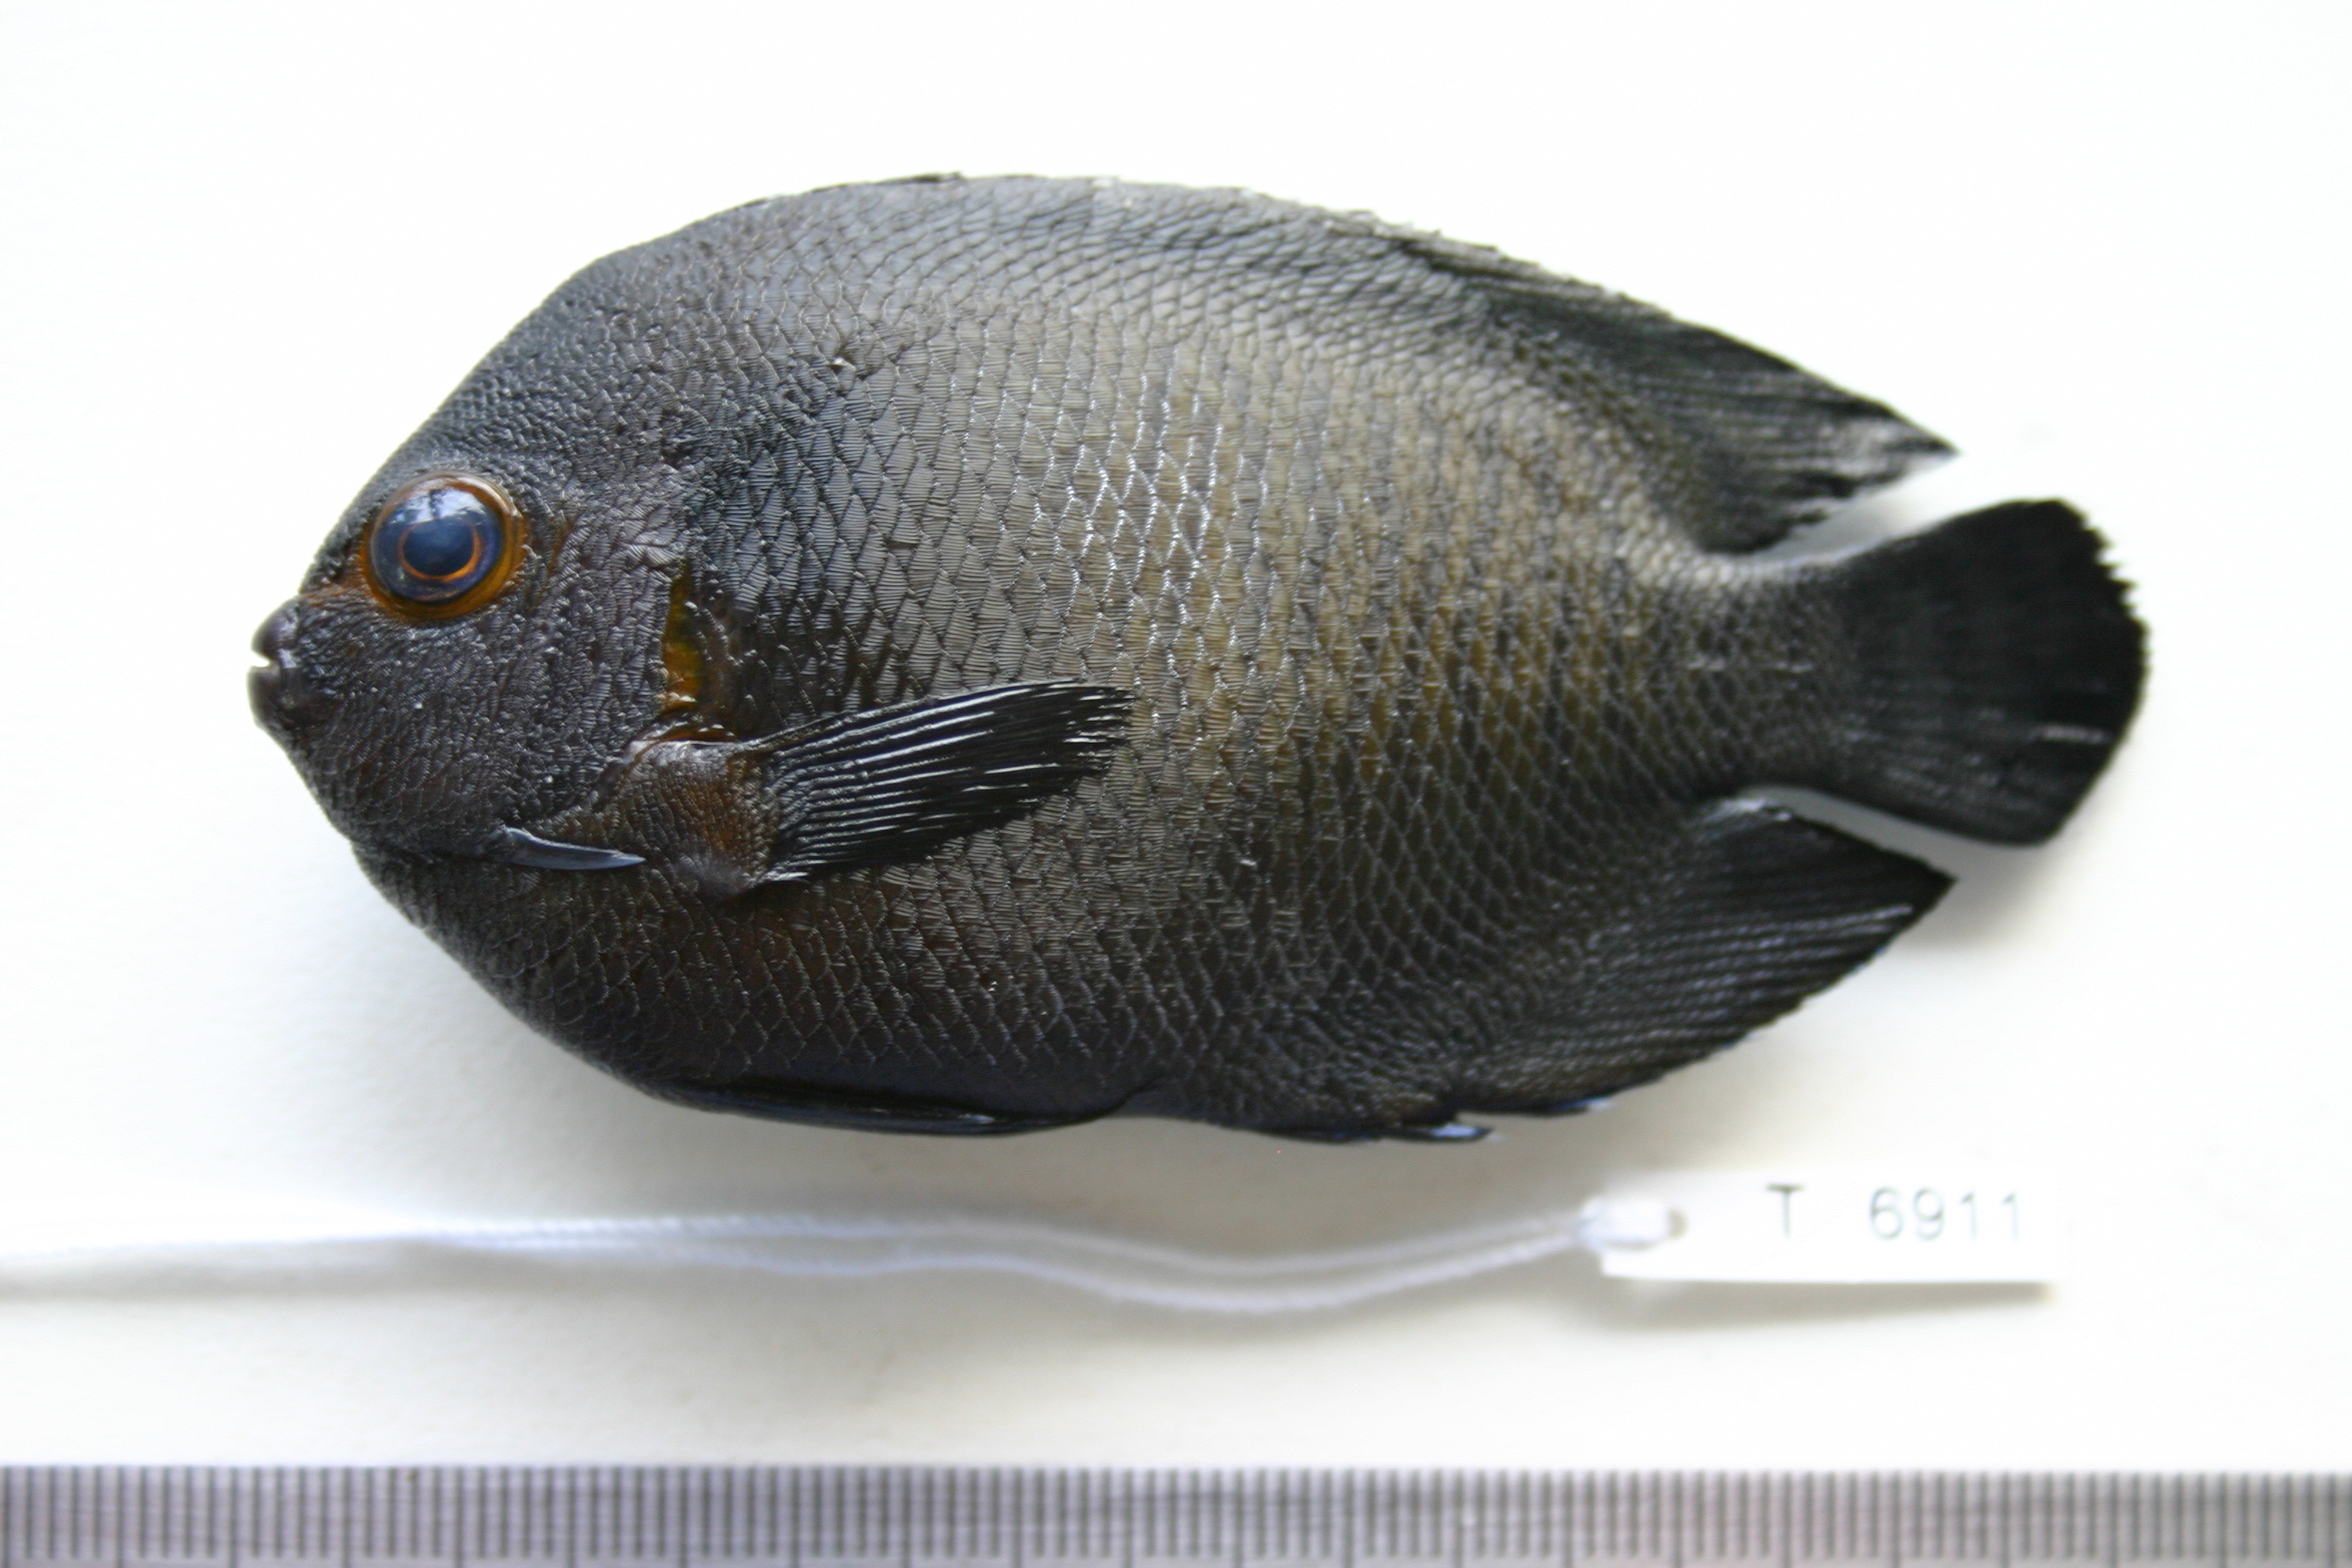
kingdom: Animalia
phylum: Chordata
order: Perciformes
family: Pomacanthidae
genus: Centropyge
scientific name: Centropyge multispinis
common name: Many-spined angelfish
